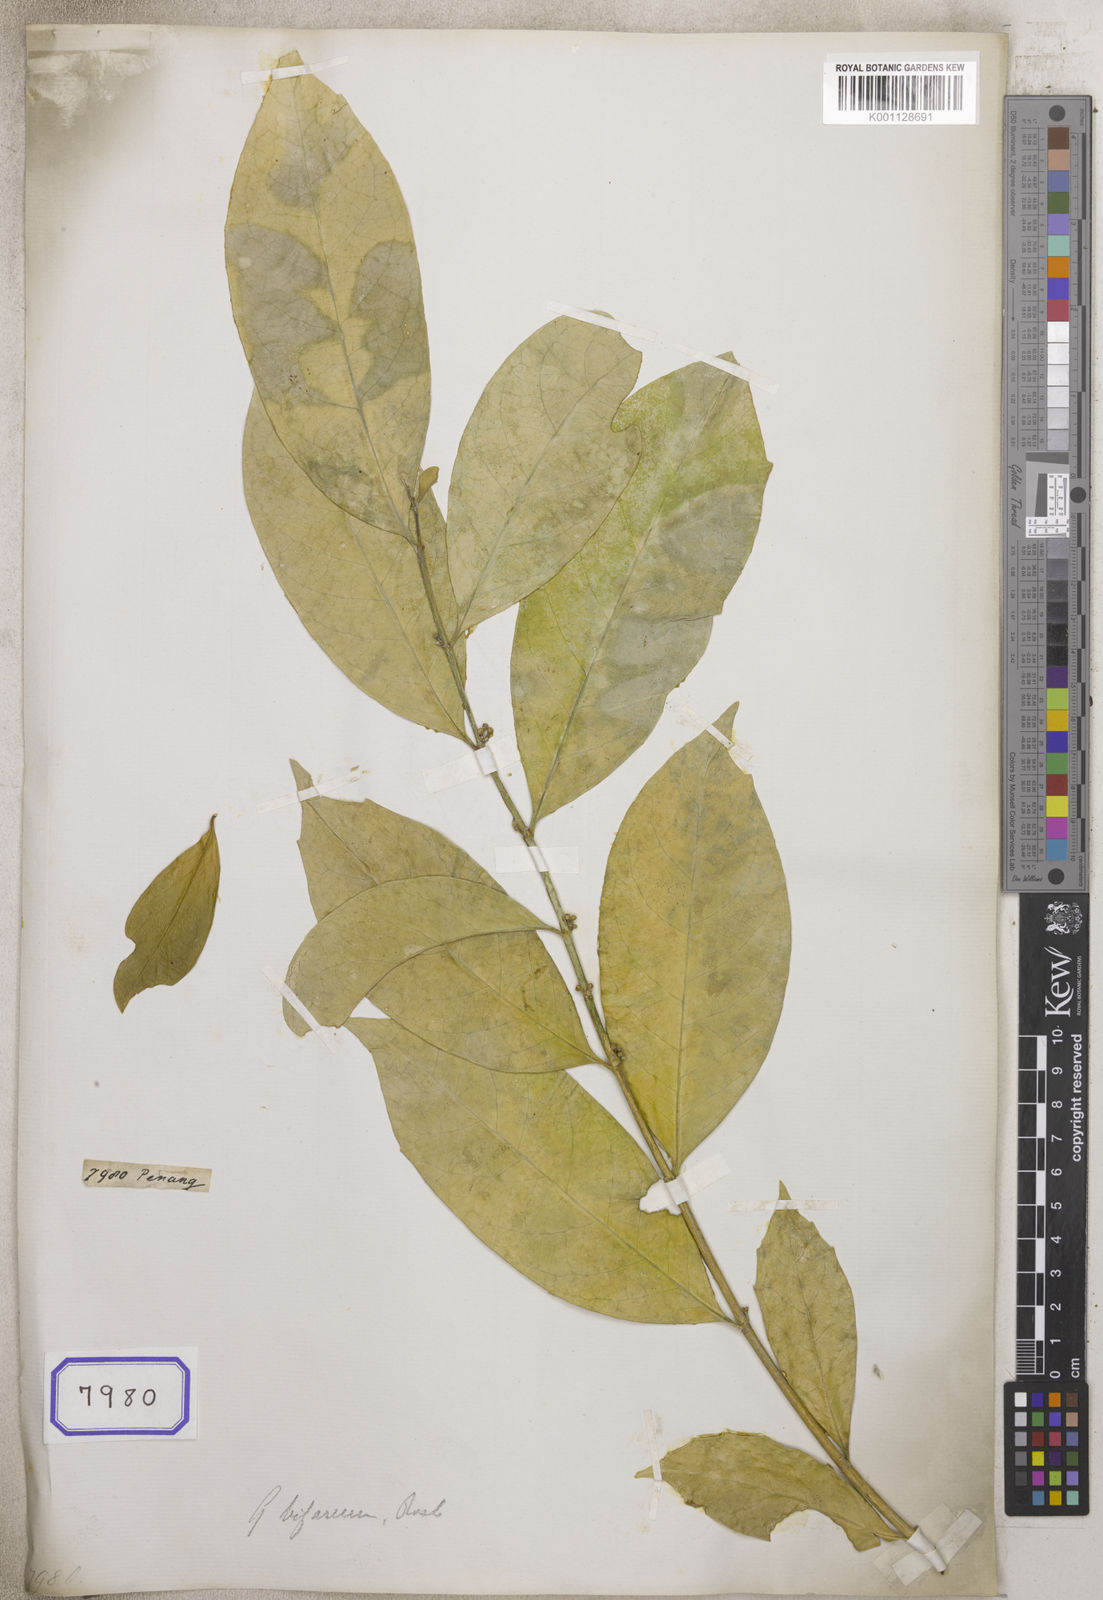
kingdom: Plantae
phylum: Tracheophyta
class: Magnoliopsida
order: Malpighiales
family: Euphorbiaceae
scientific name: Euphorbiaceae
